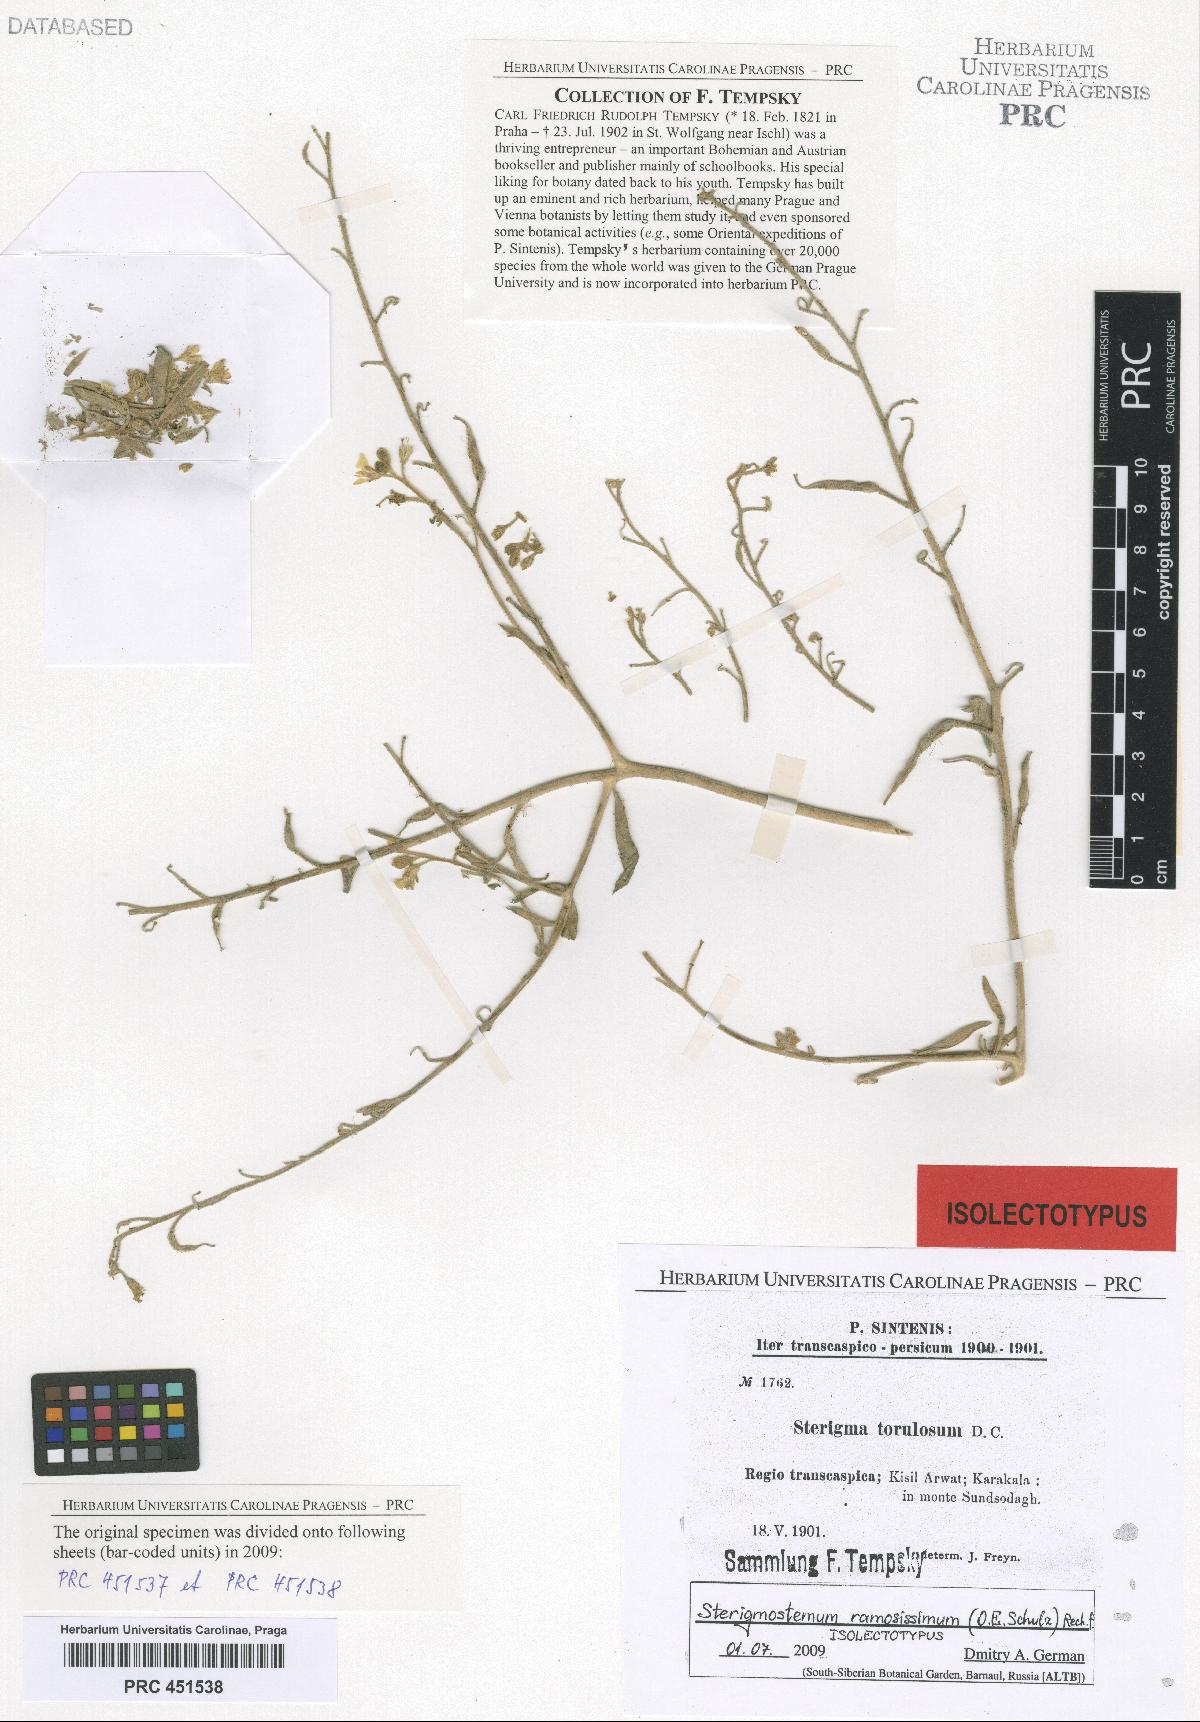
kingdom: Plantae
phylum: Tracheophyta
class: Magnoliopsida
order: Brassicales
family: Brassicaceae
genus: Sterigmostemum
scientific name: Sterigmostemum ramosissimum
